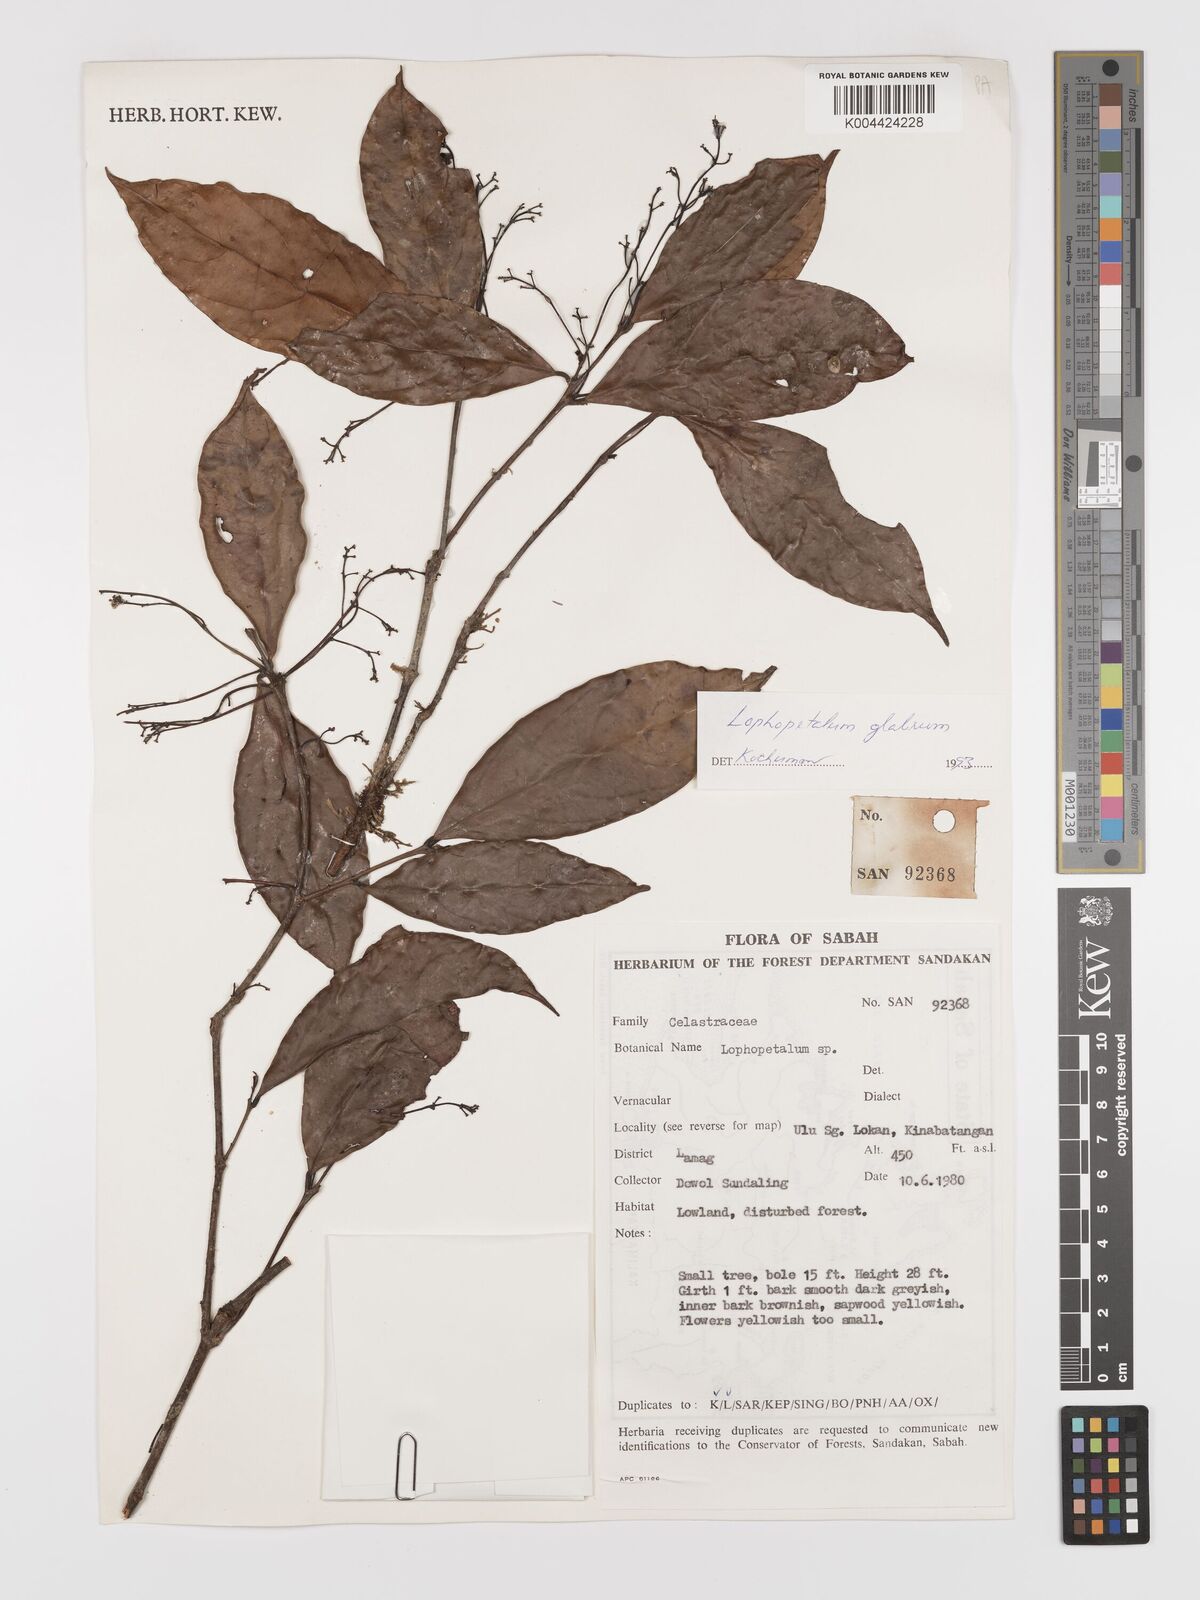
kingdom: Plantae
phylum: Tracheophyta
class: Magnoliopsida
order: Celastrales
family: Celastraceae
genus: Lophopetalum
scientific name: Lophopetalum glabrum
